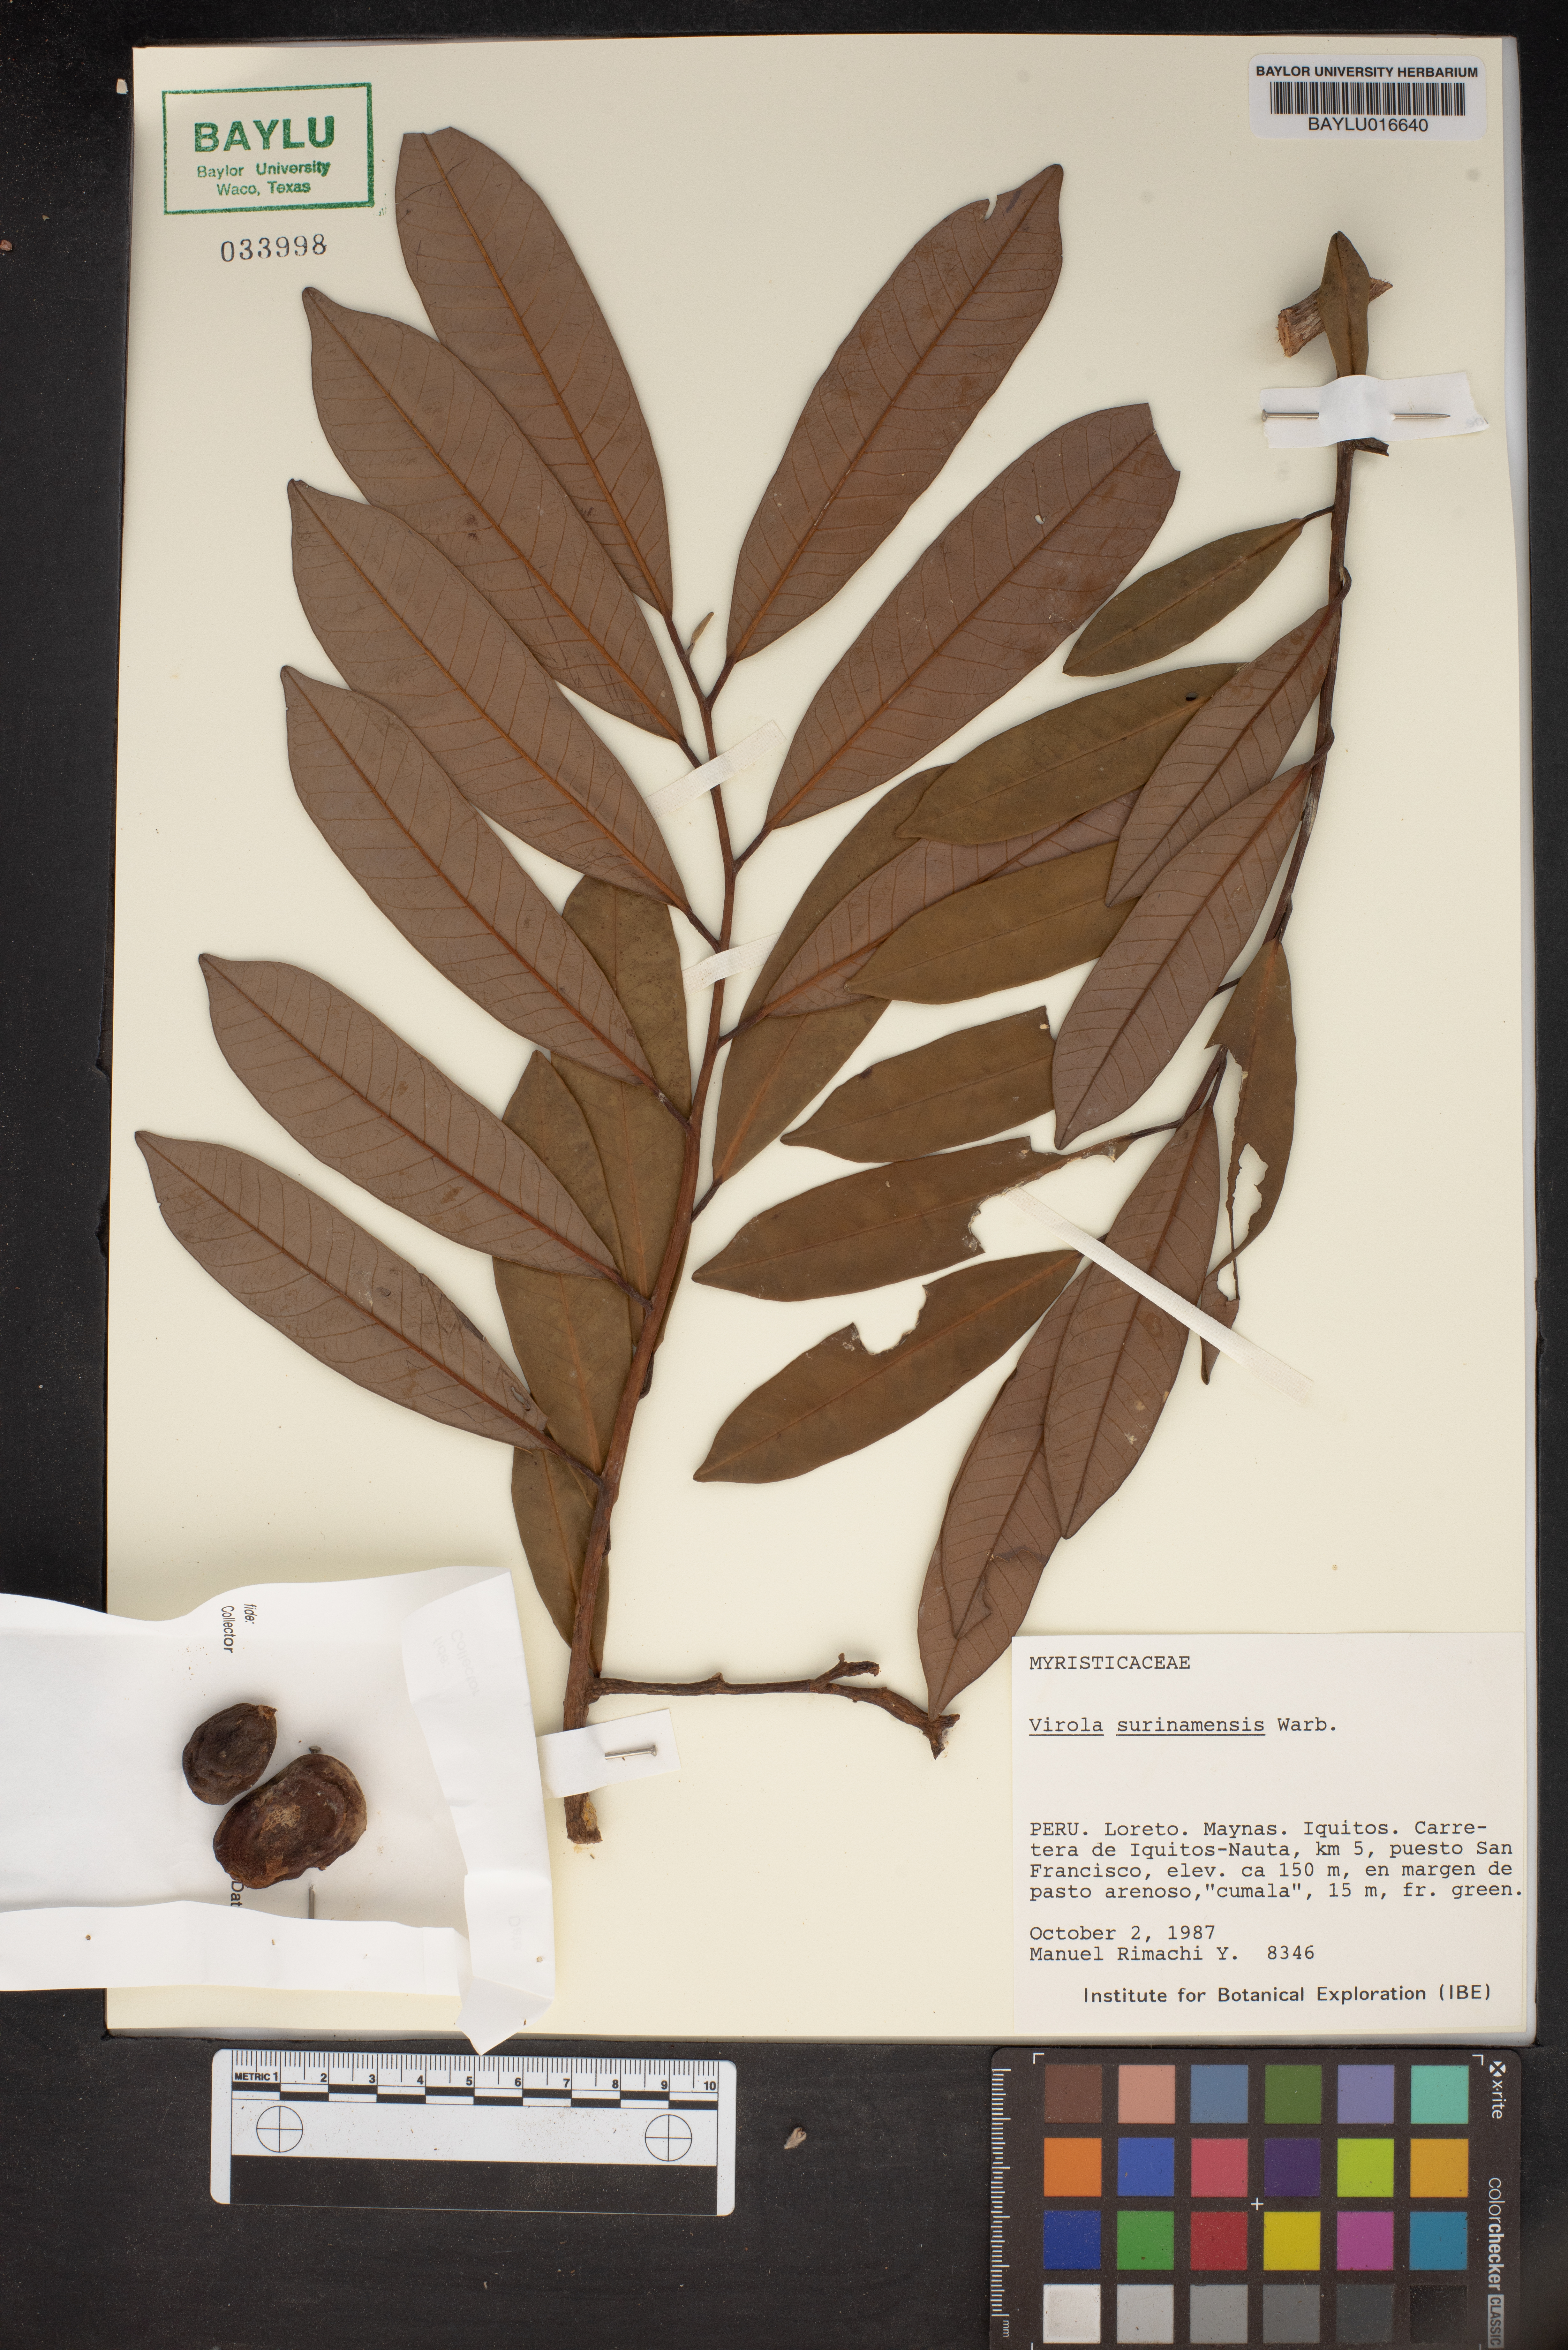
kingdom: Plantae
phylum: Tracheophyta
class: Magnoliopsida
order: Magnoliales
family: Myristicaceae
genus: Virola
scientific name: Virola surinamensis
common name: Baboonwood
